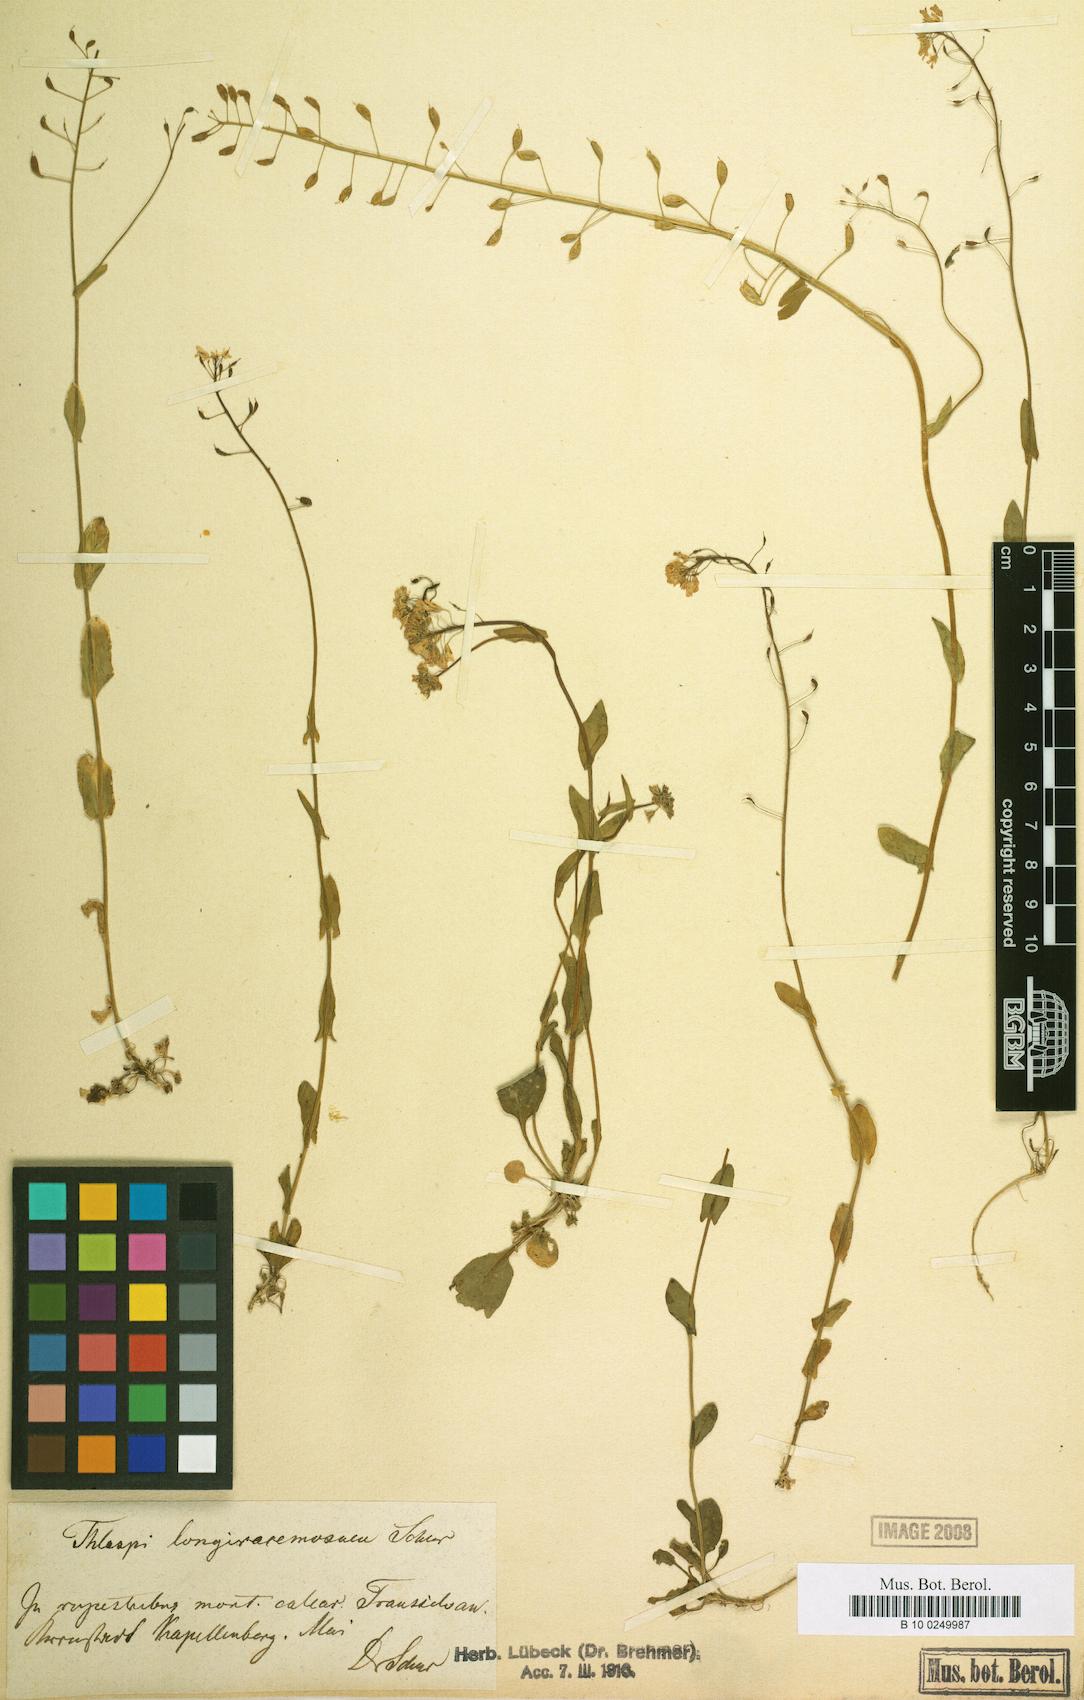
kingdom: Plantae
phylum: Tracheophyta
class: Magnoliopsida
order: Brassicales
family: Brassicaceae
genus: Noccaea
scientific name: Noccaea kovatsii
